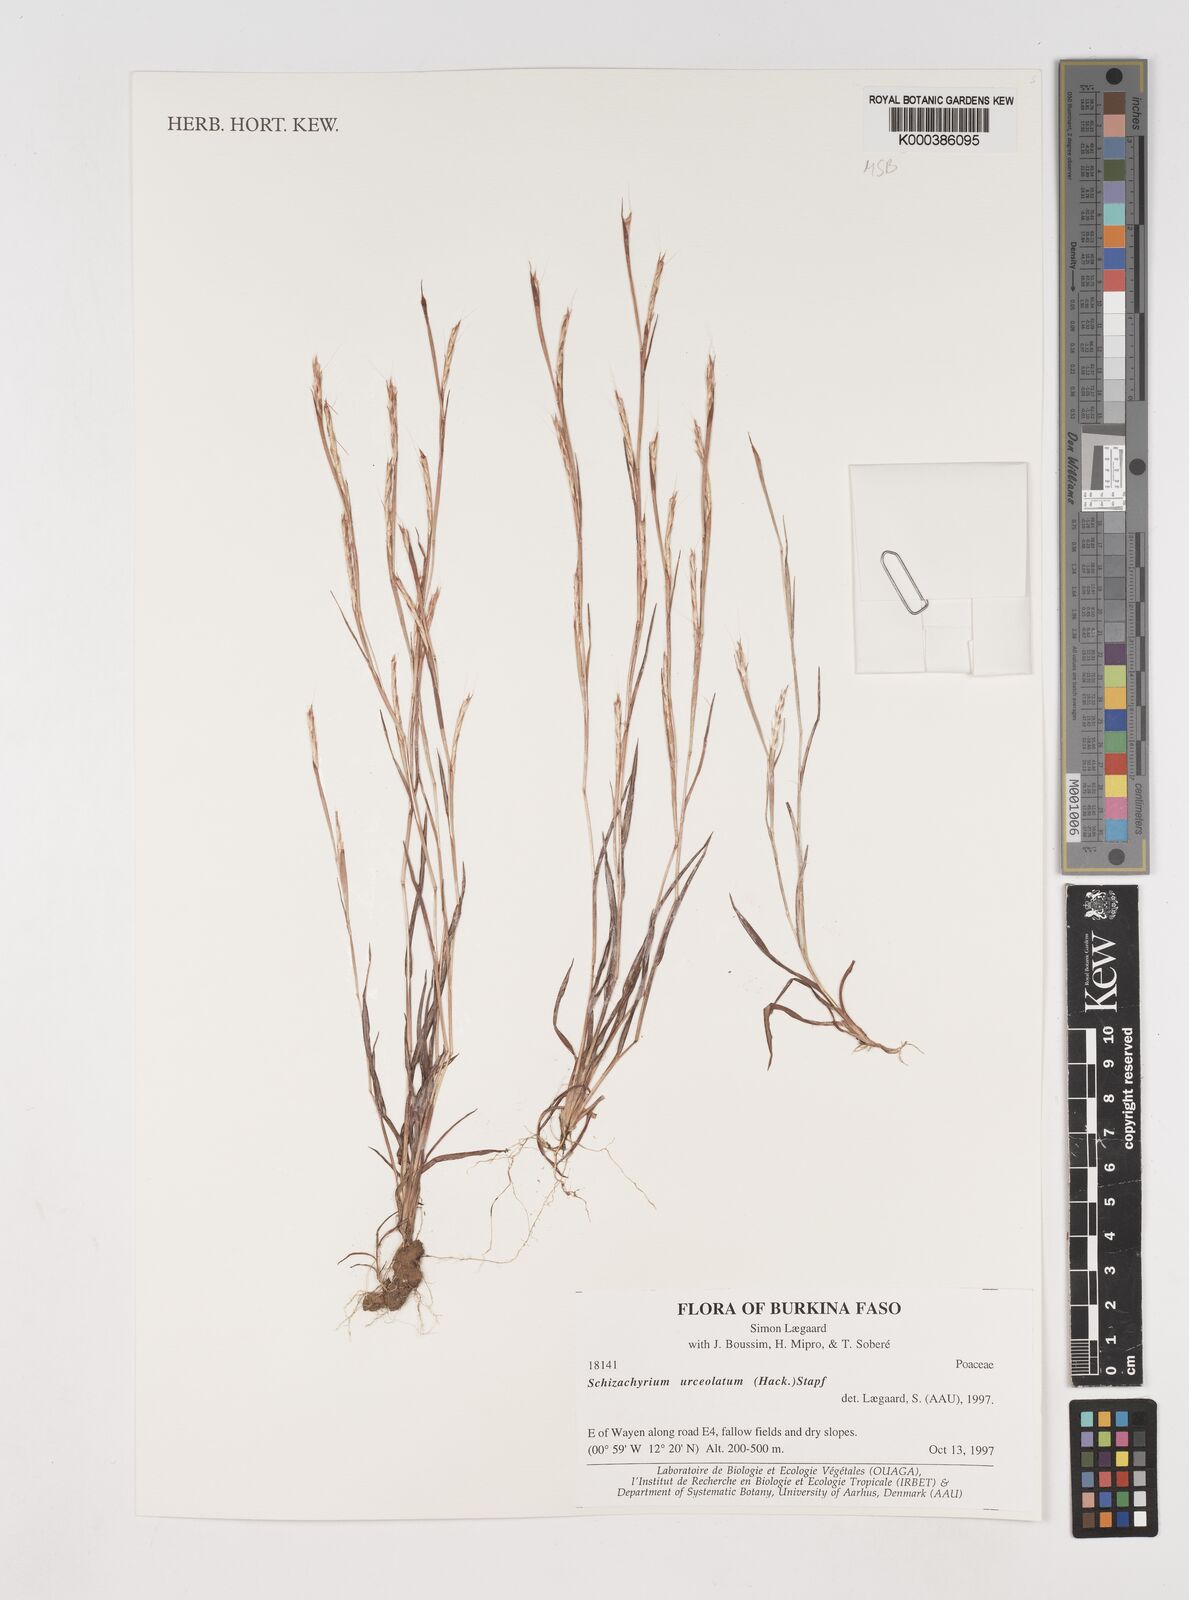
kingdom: Plantae
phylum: Tracheophyta
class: Liliopsida
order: Poales
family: Poaceae
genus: Schizachyrium
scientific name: Schizachyrium urceolatum
